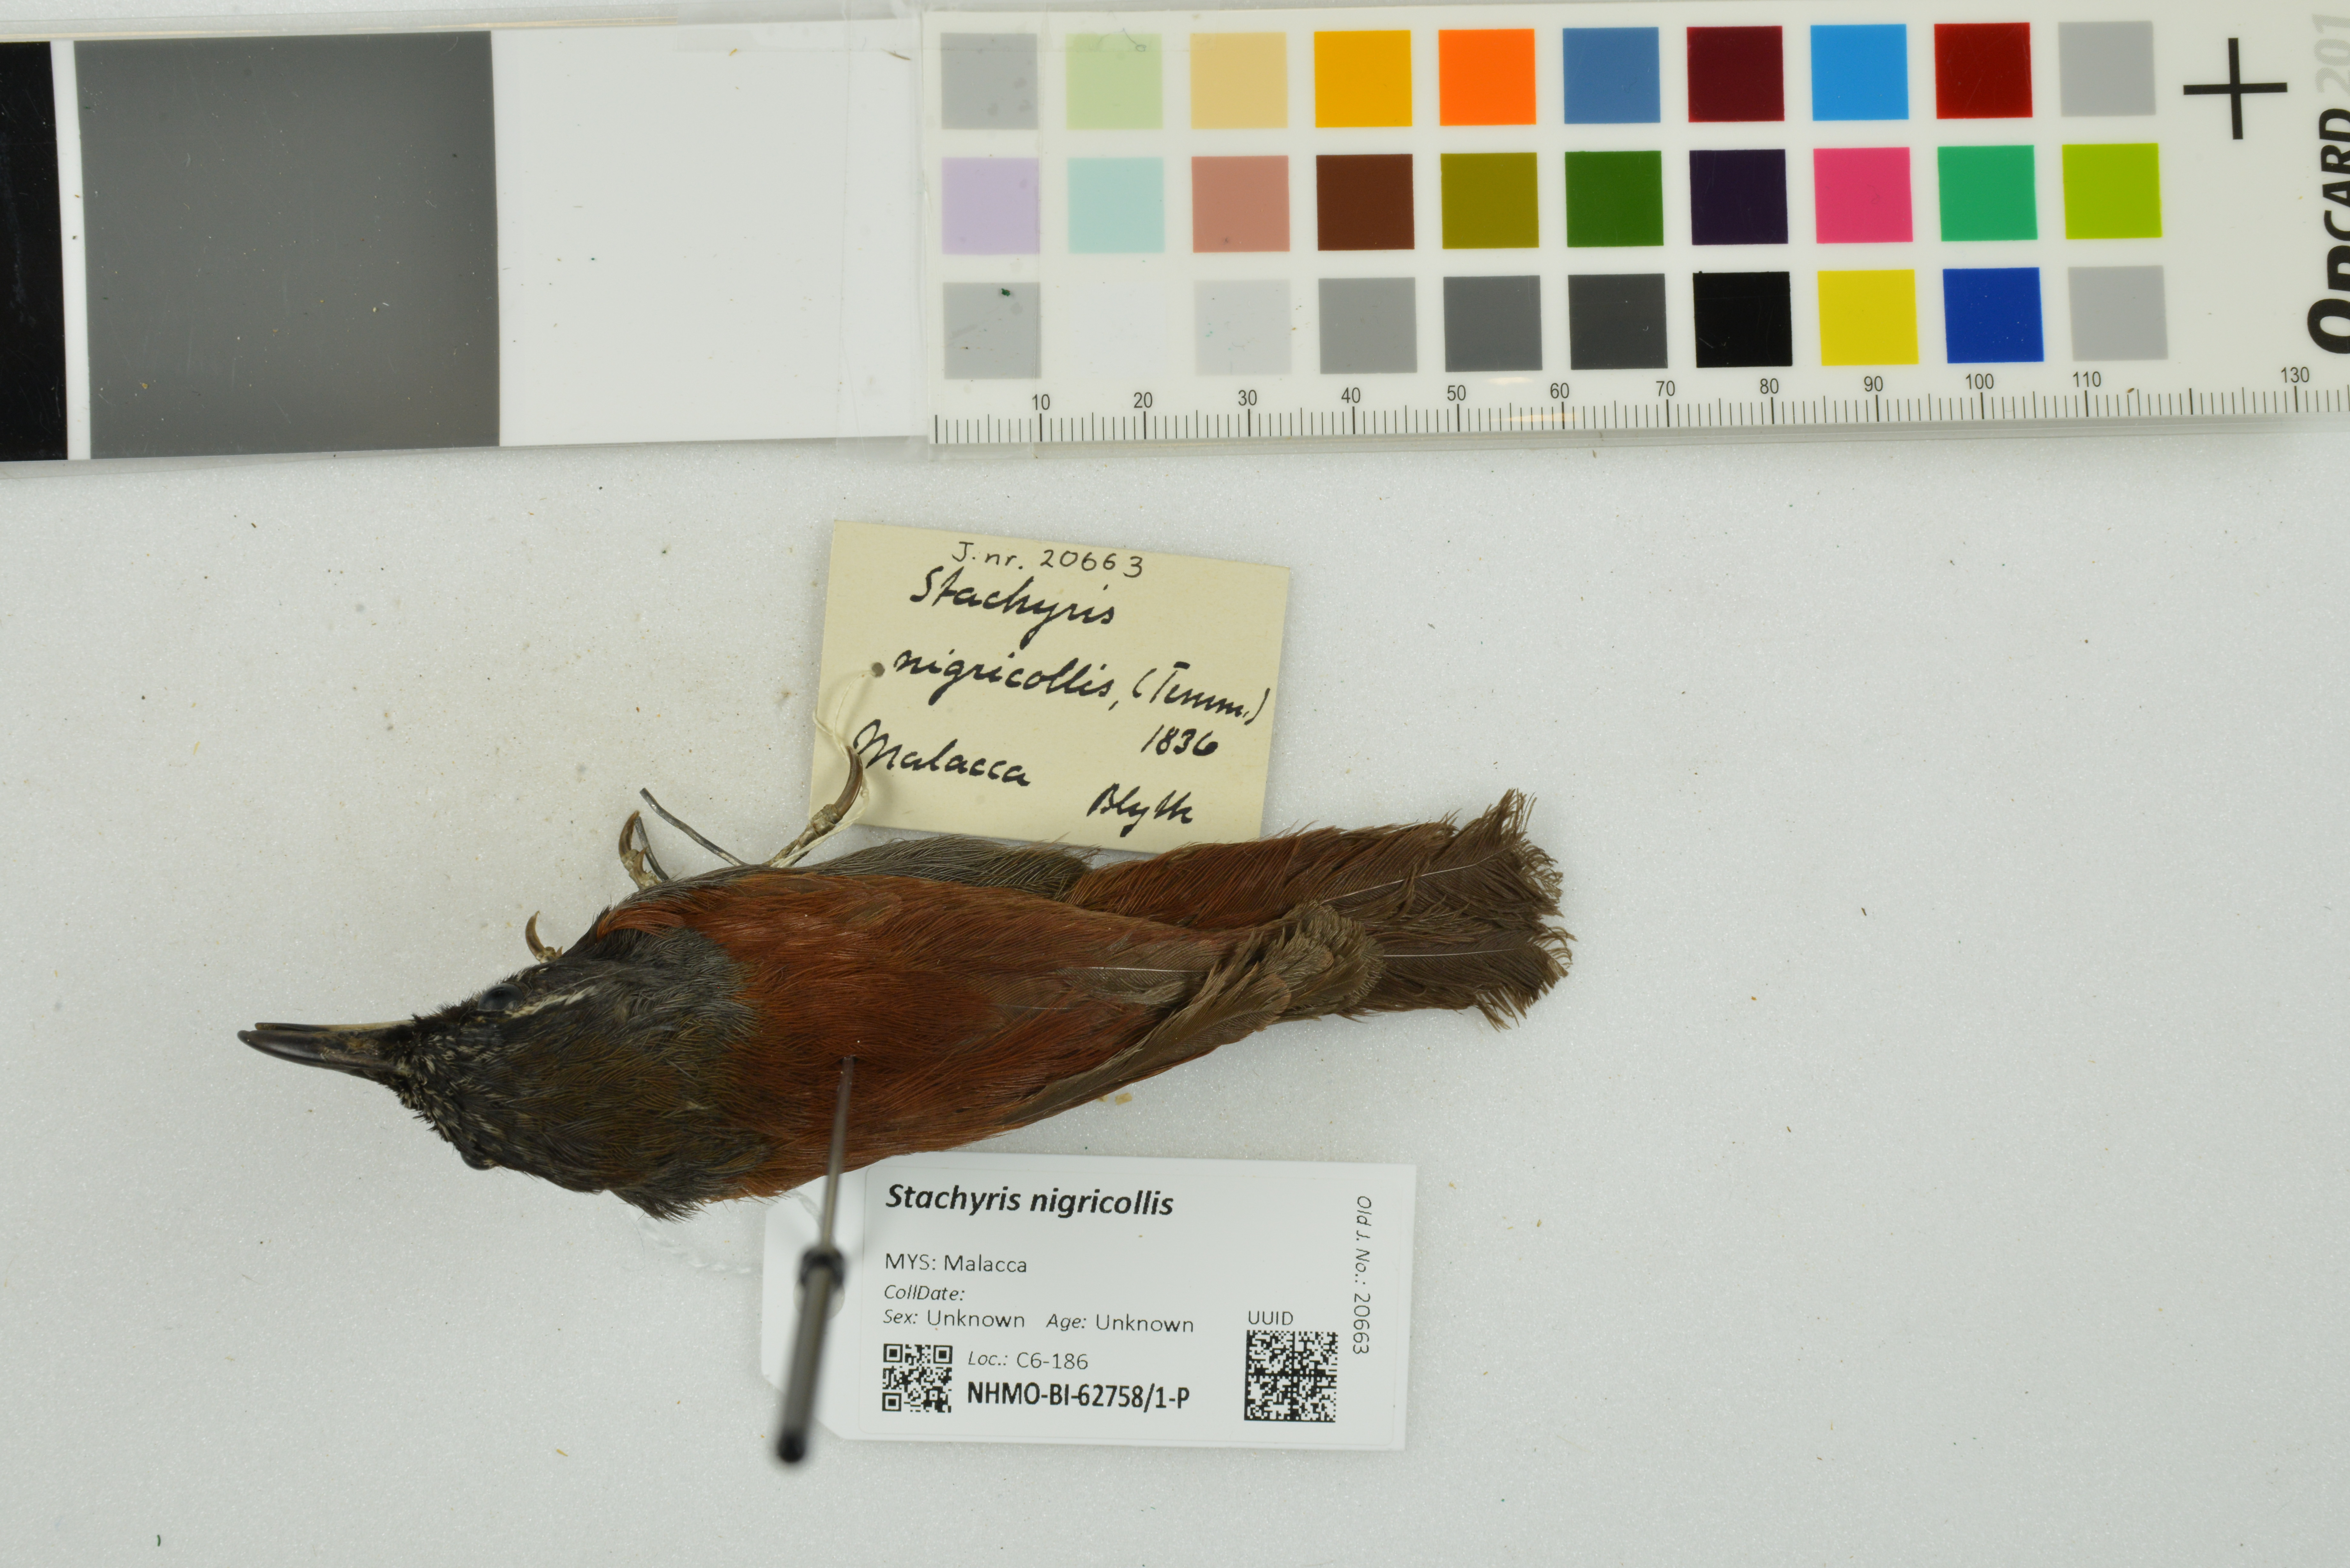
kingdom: Animalia
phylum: Chordata
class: Aves
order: Passeriformes
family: Timaliidae
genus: Stachyris
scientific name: Stachyris nigricollis
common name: Black-throated babbler
